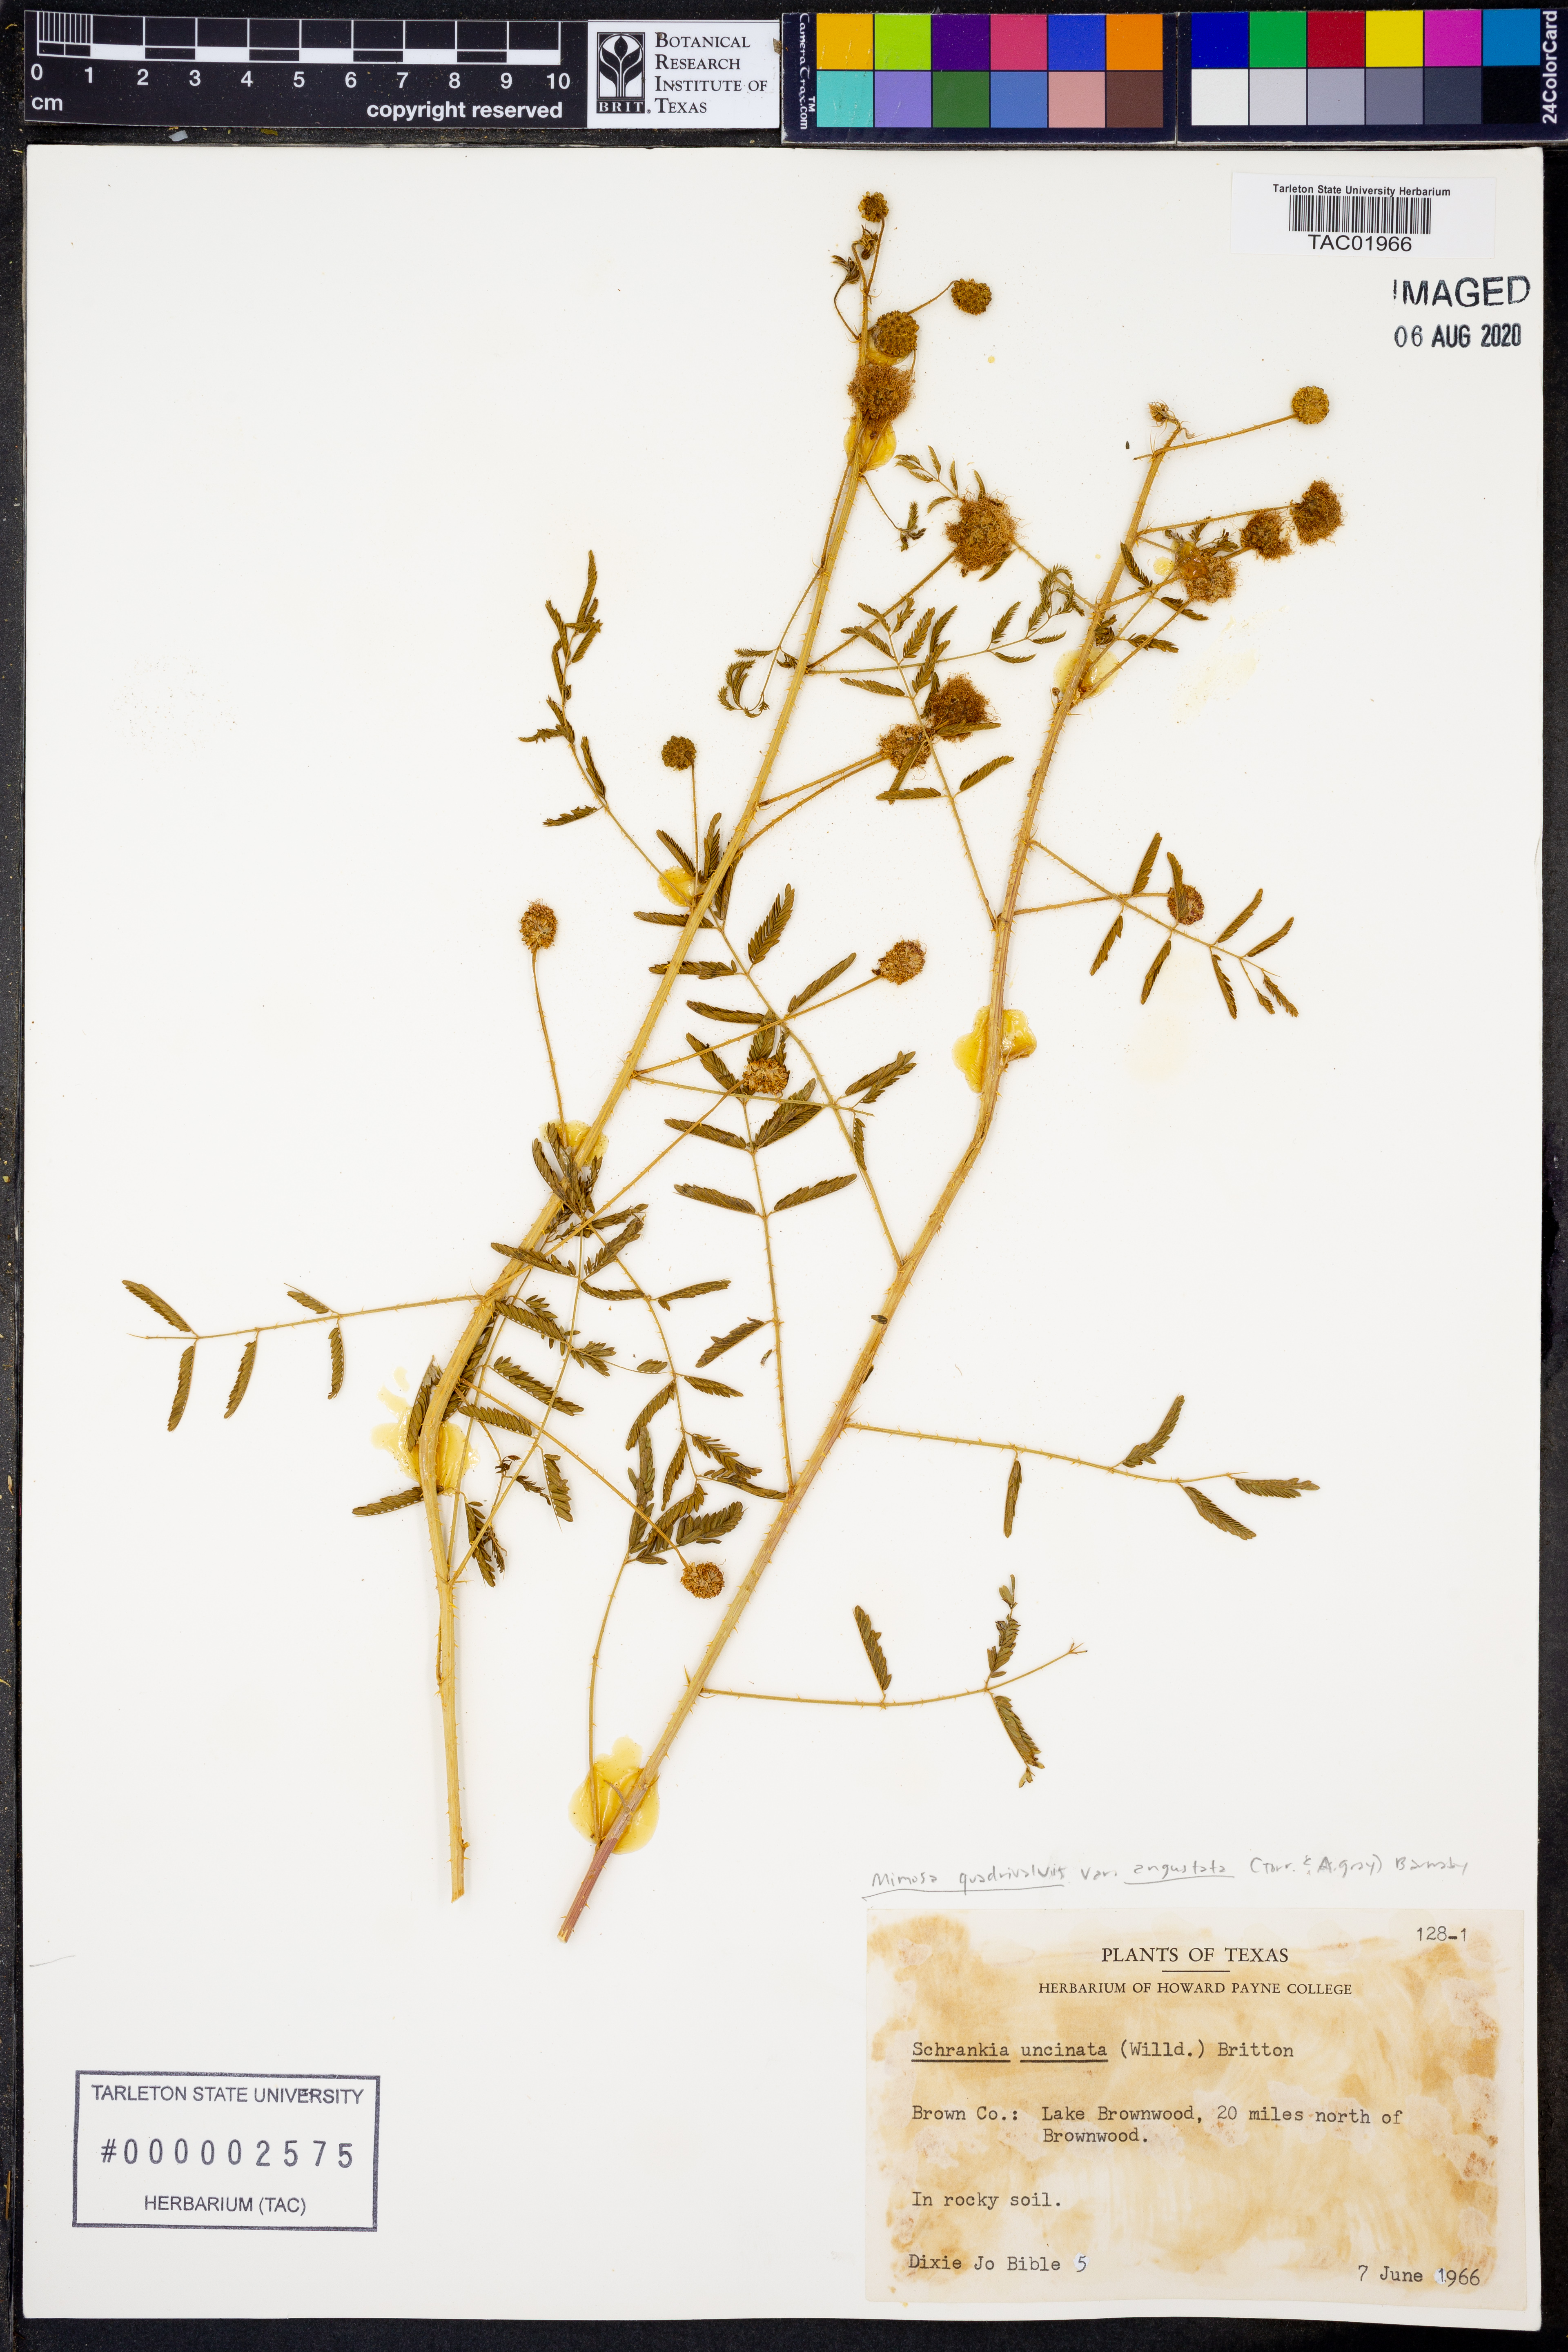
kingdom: Plantae
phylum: Tracheophyta
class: Magnoliopsida
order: Fabales
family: Fabaceae
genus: Mimosa
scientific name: Mimosa quadrivalvis
